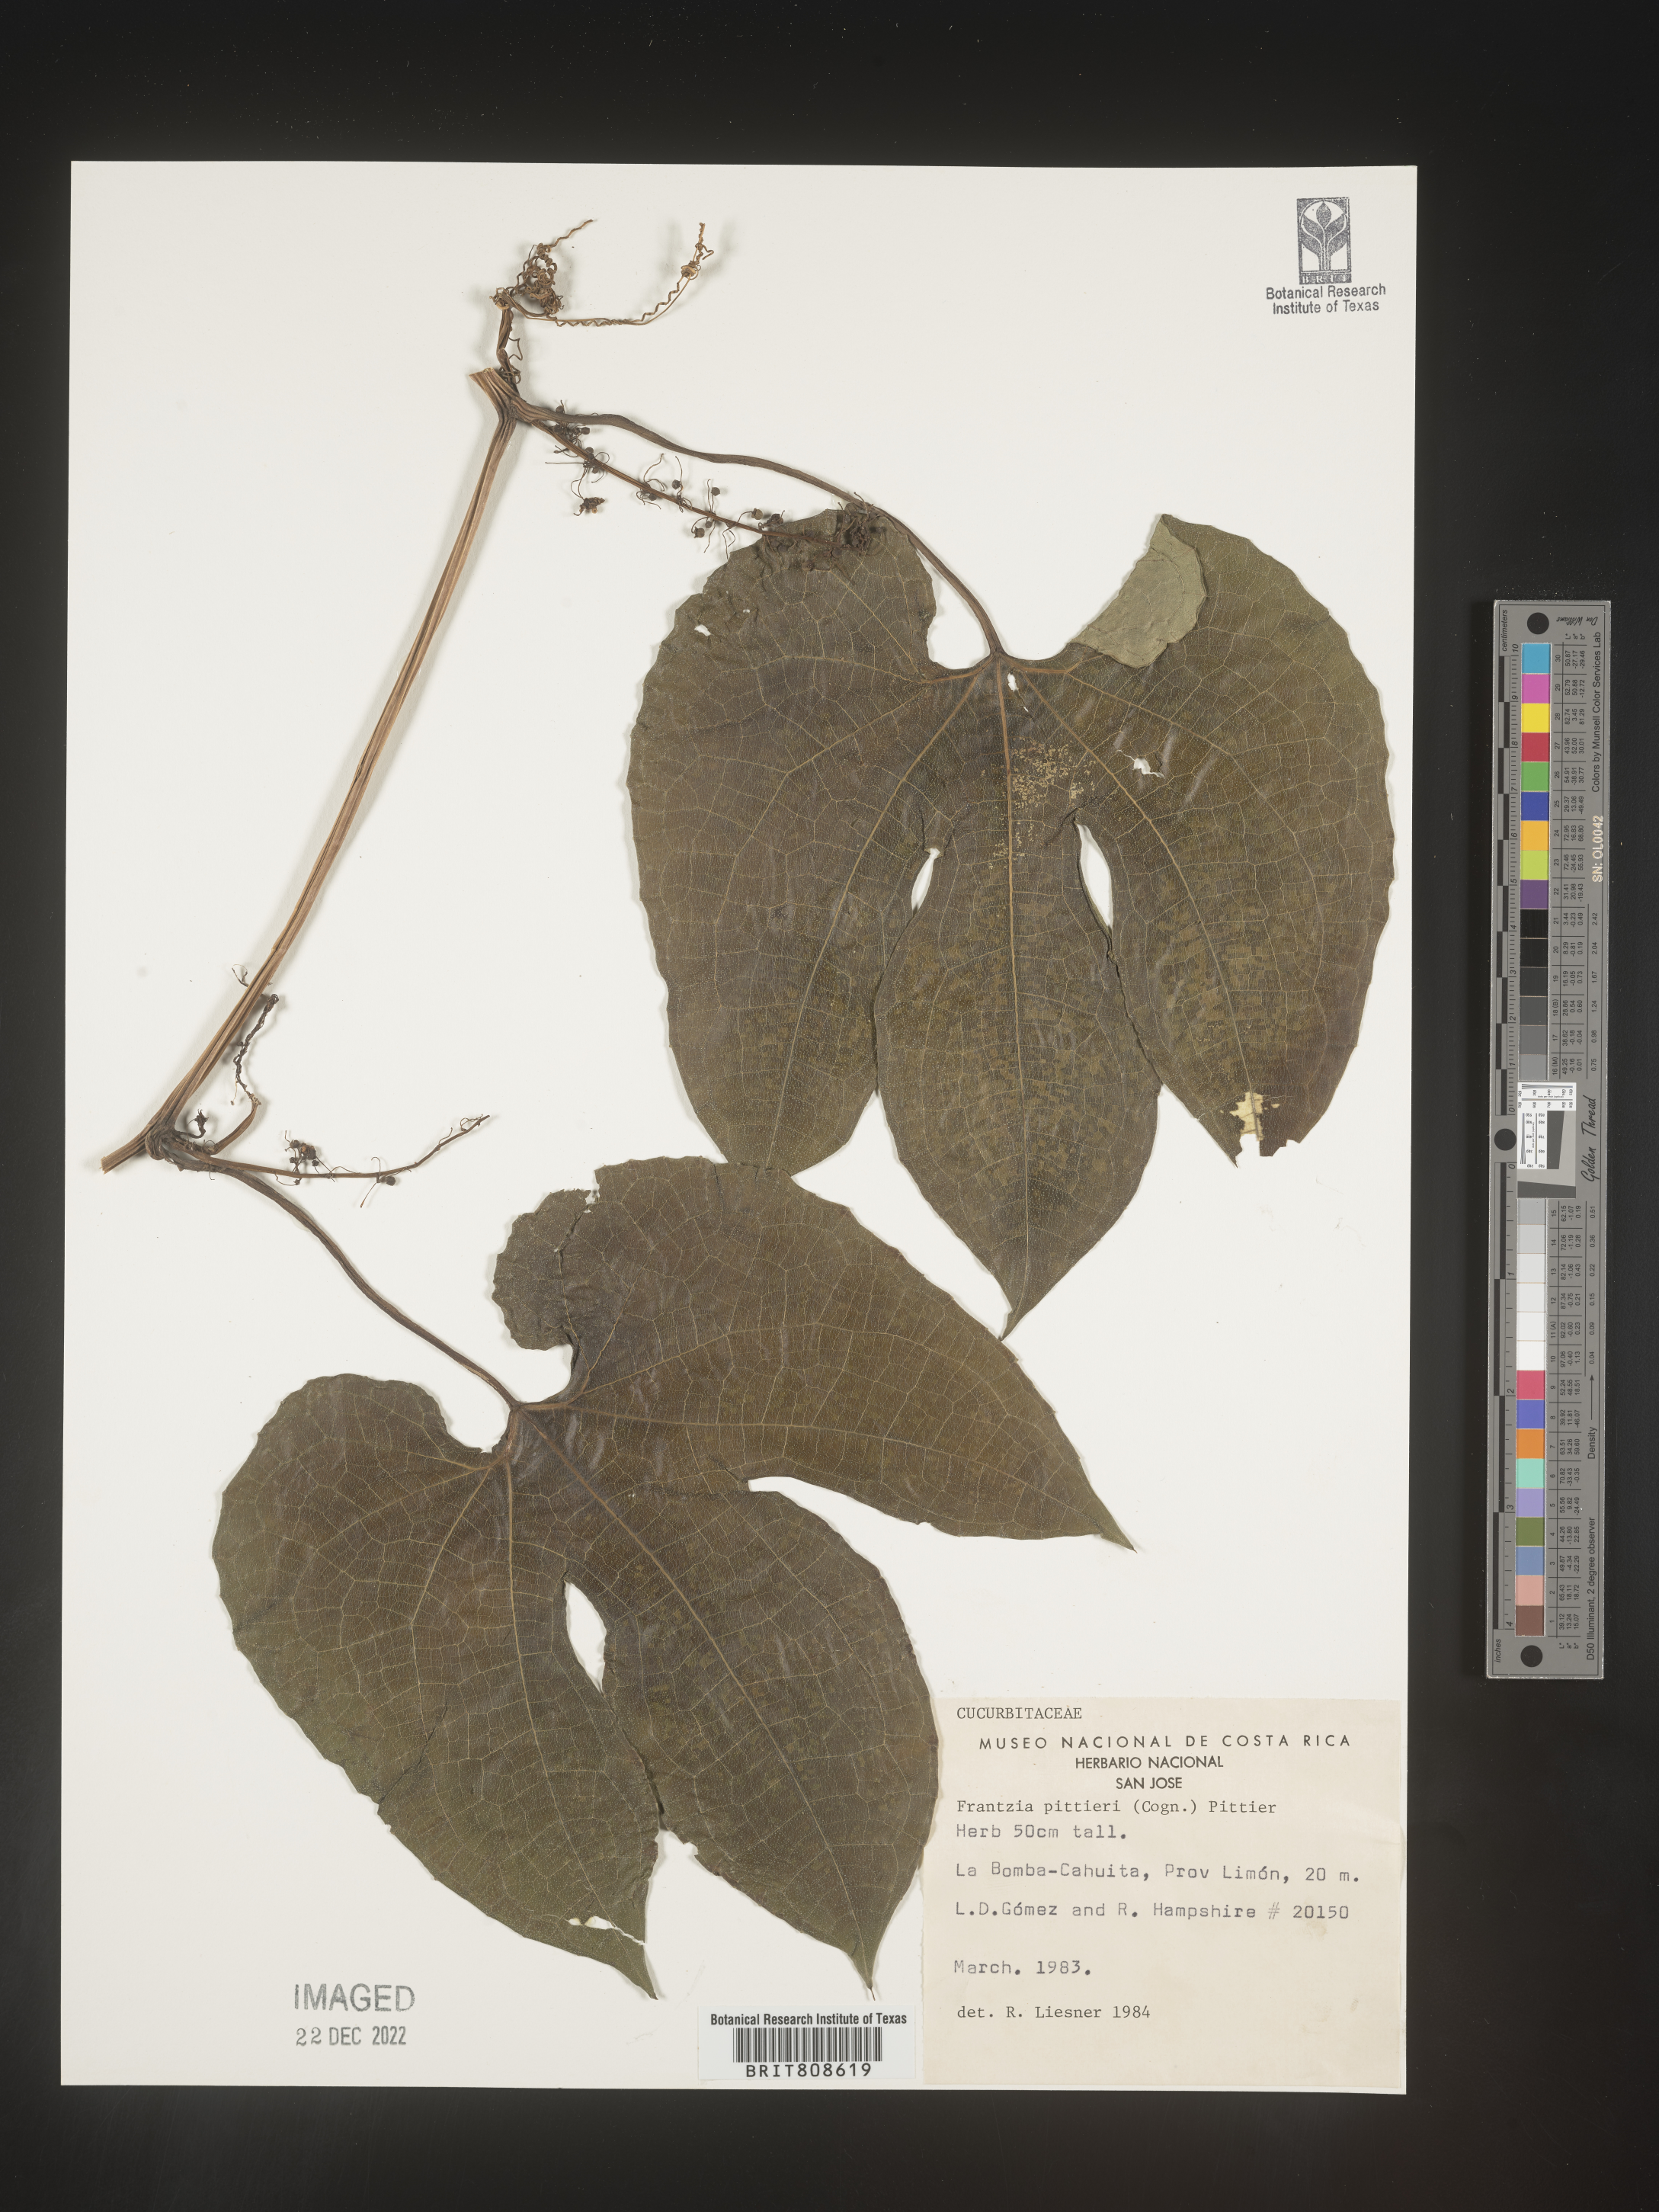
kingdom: Plantae
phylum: Tracheophyta
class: Magnoliopsida
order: Cucurbitales
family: Cucurbitaceae
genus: Frantzia
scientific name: Frantzia
